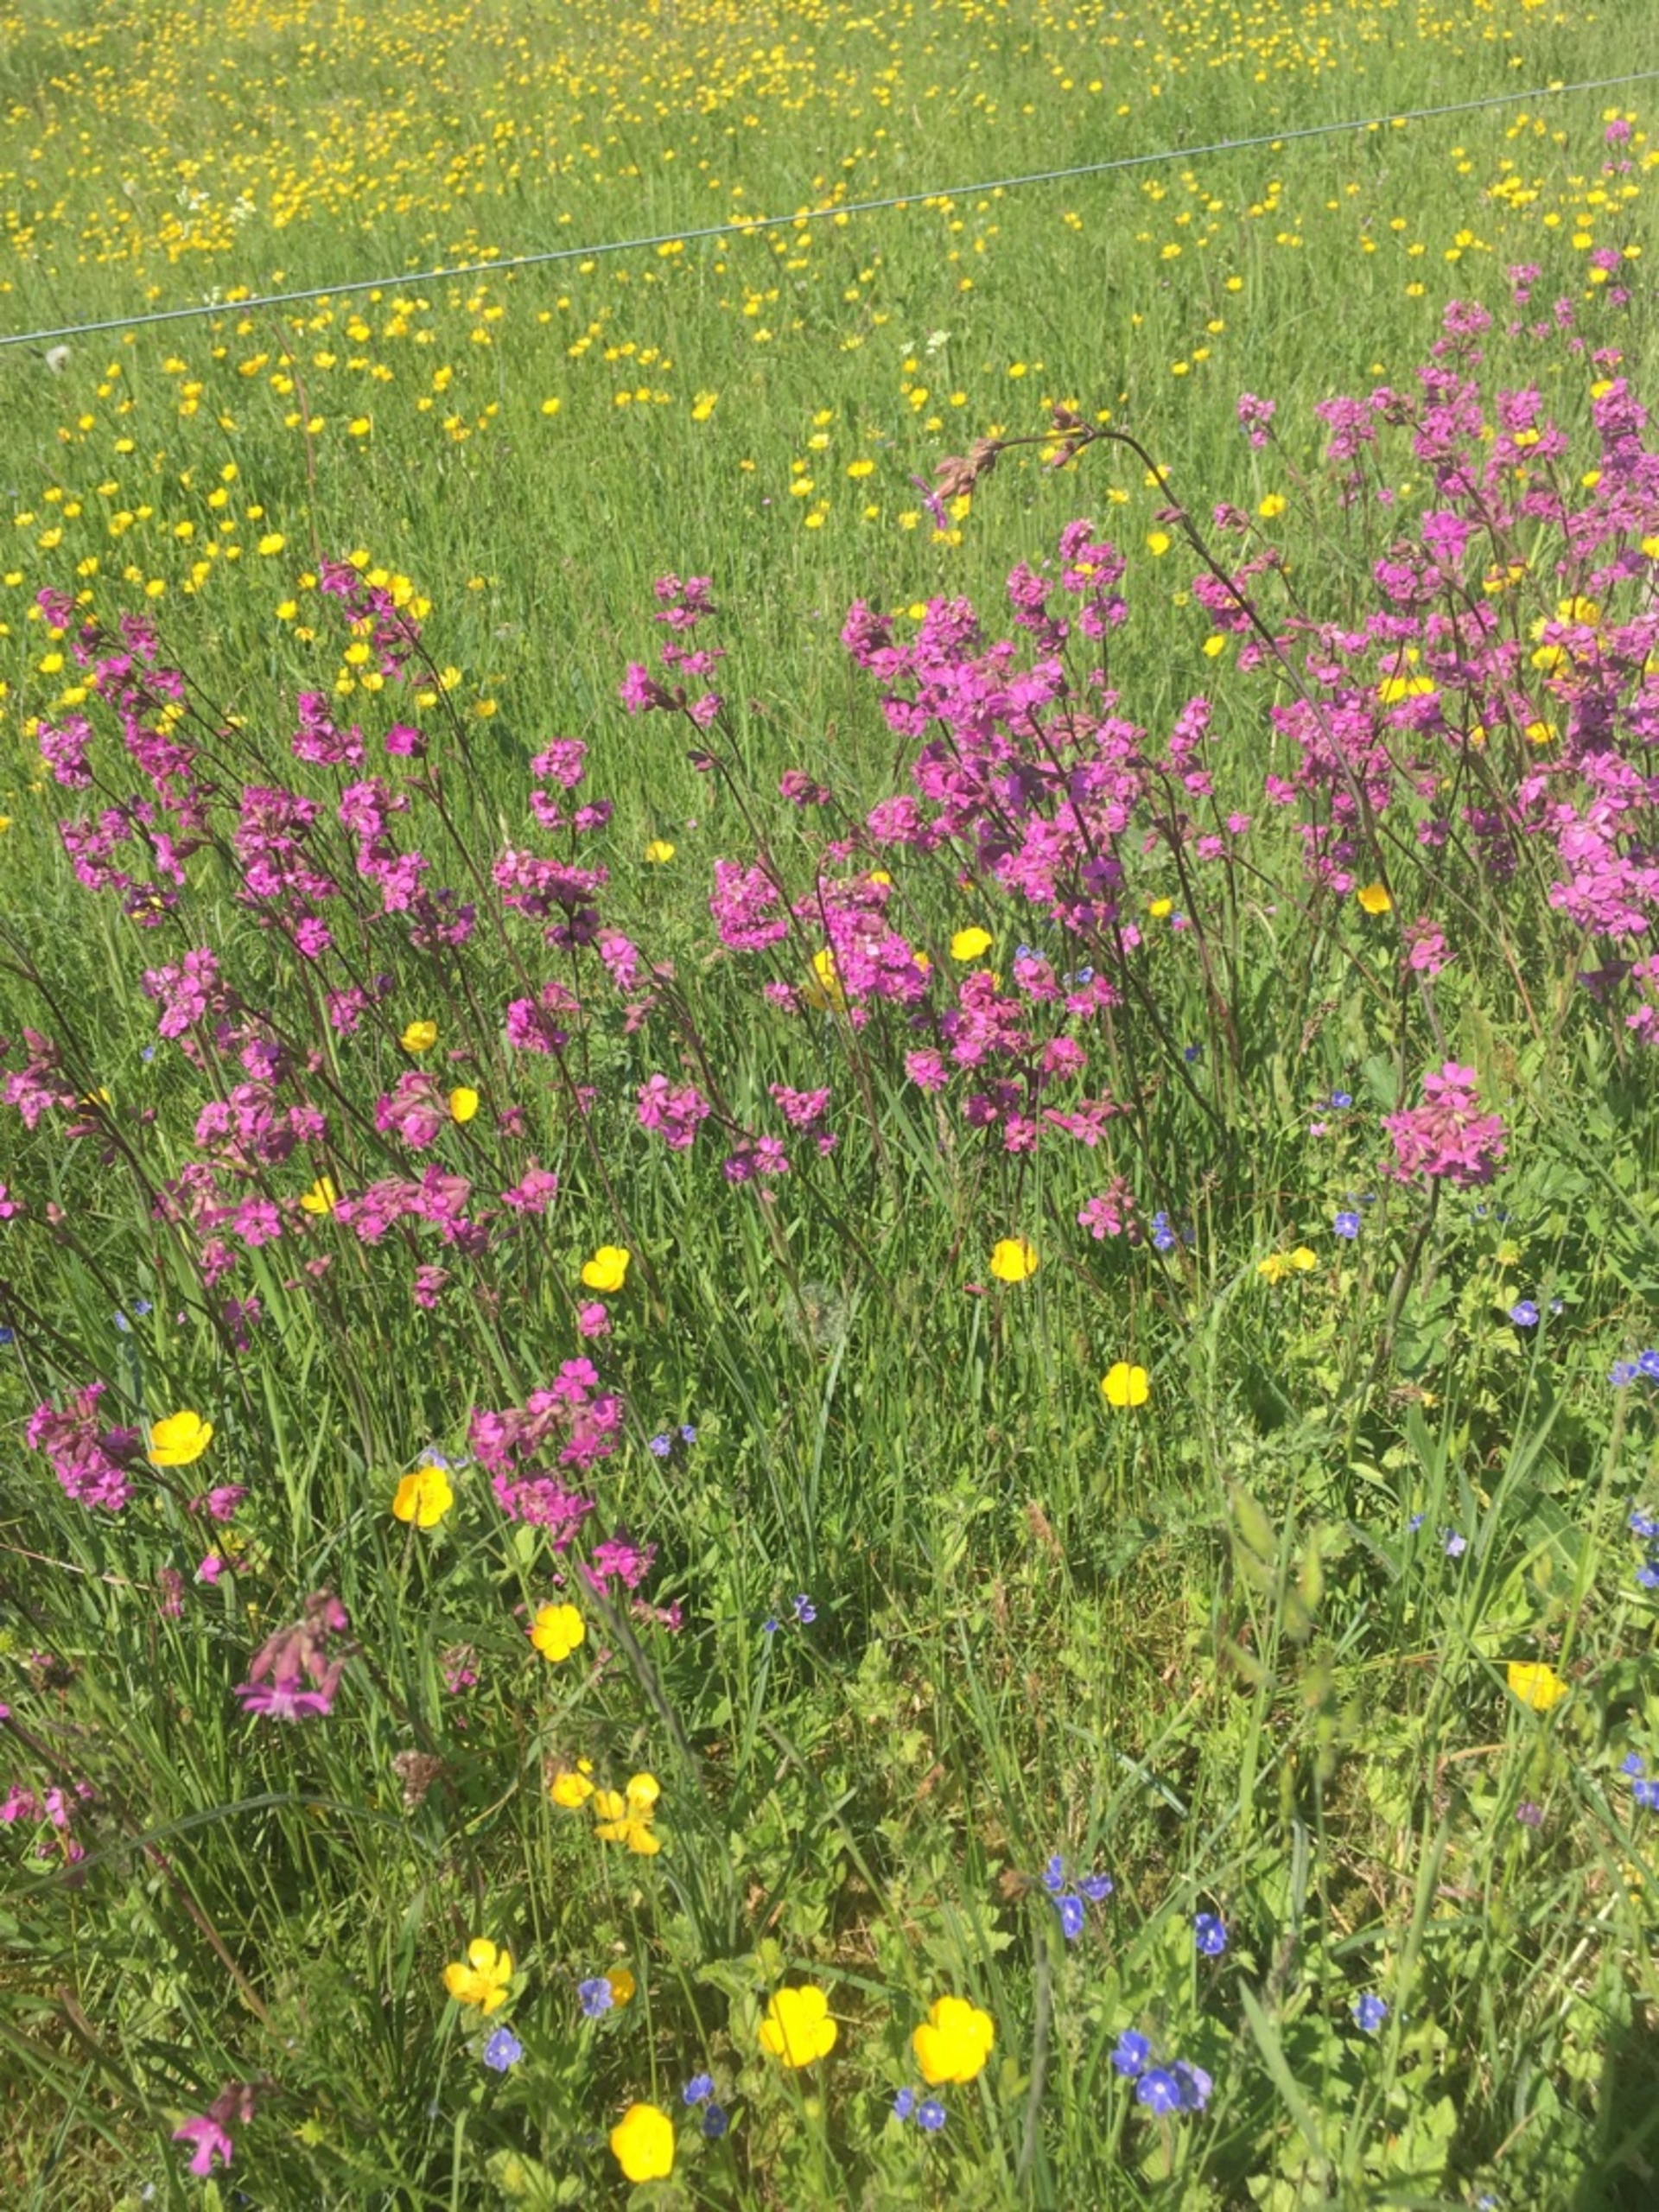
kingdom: Plantae
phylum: Tracheophyta
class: Magnoliopsida
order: Caryophyllales
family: Caryophyllaceae
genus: Viscaria
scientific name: Viscaria vulgaris
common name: Tjærenellike
